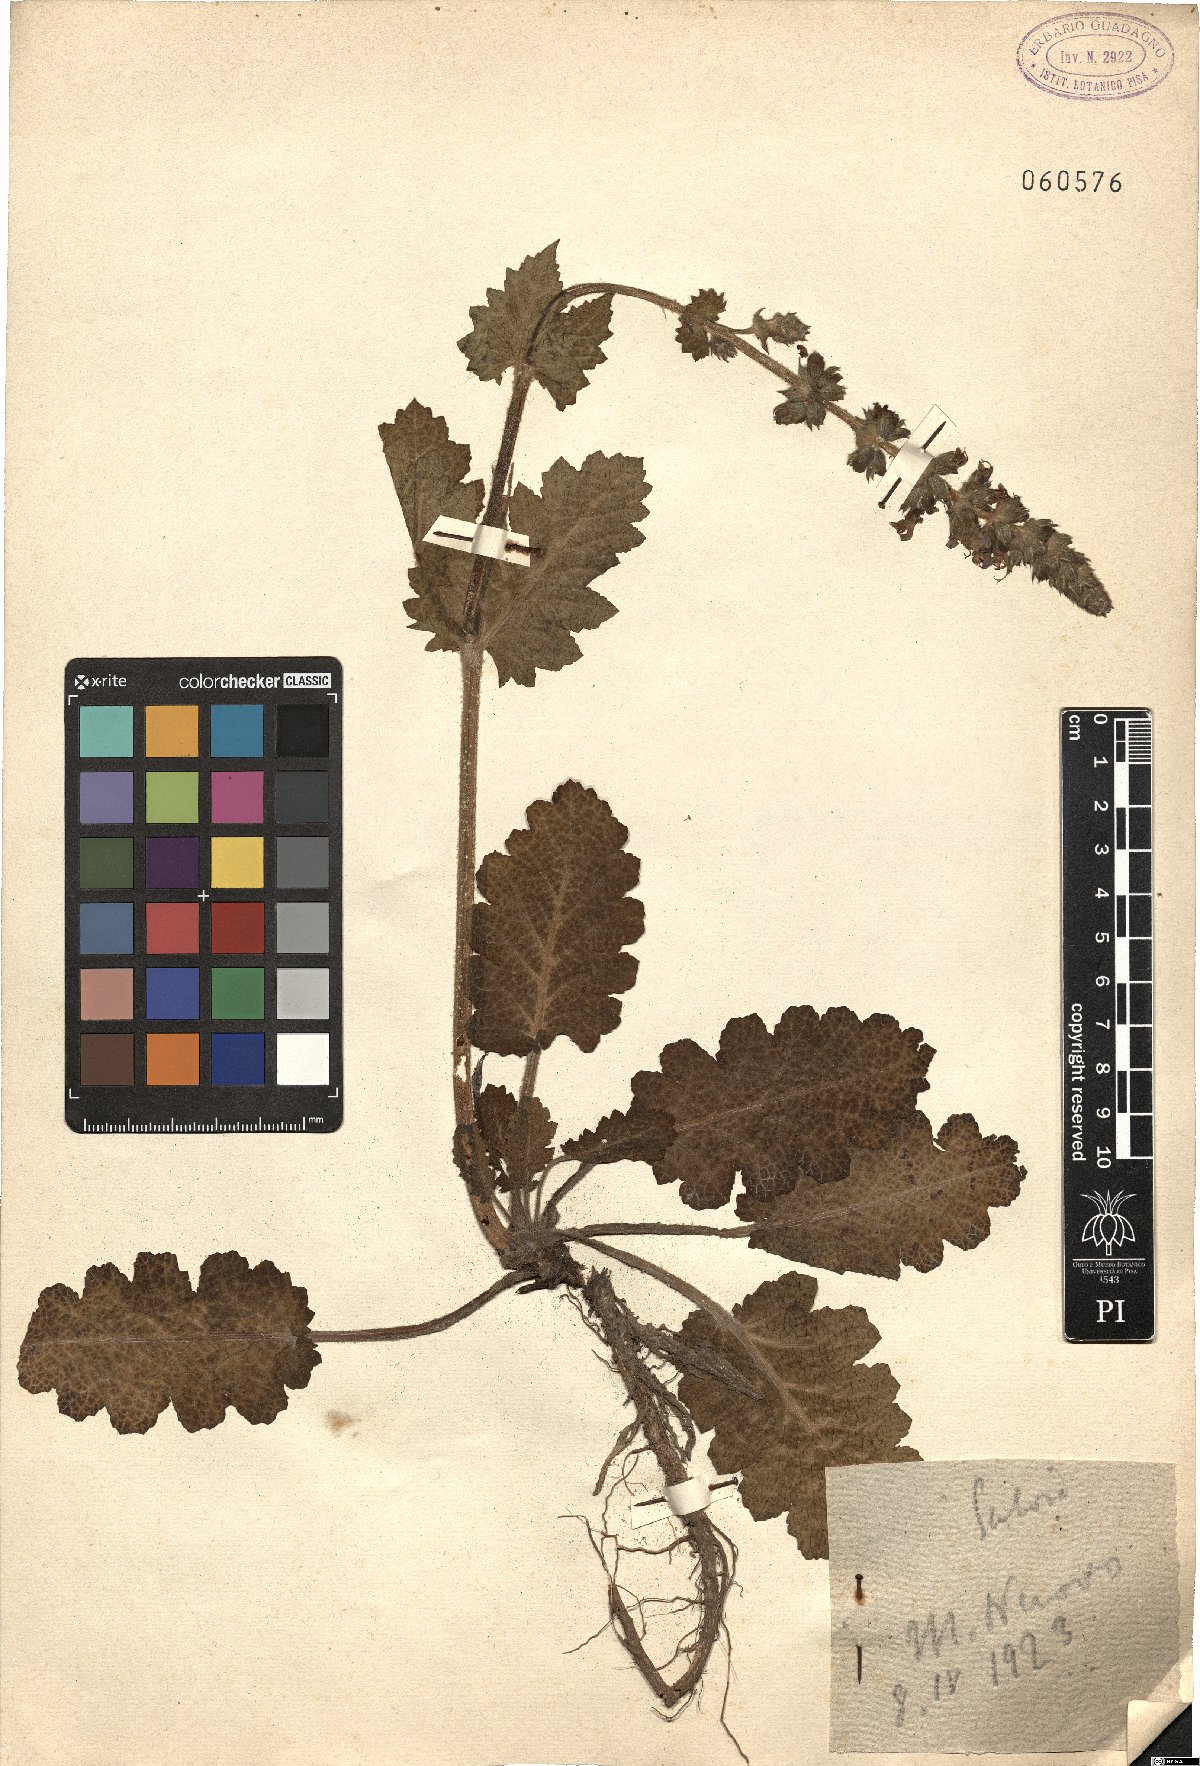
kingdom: Plantae
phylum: Tracheophyta
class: Magnoliopsida
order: Lamiales
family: Lamiaceae
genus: Salvia
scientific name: Salvia
